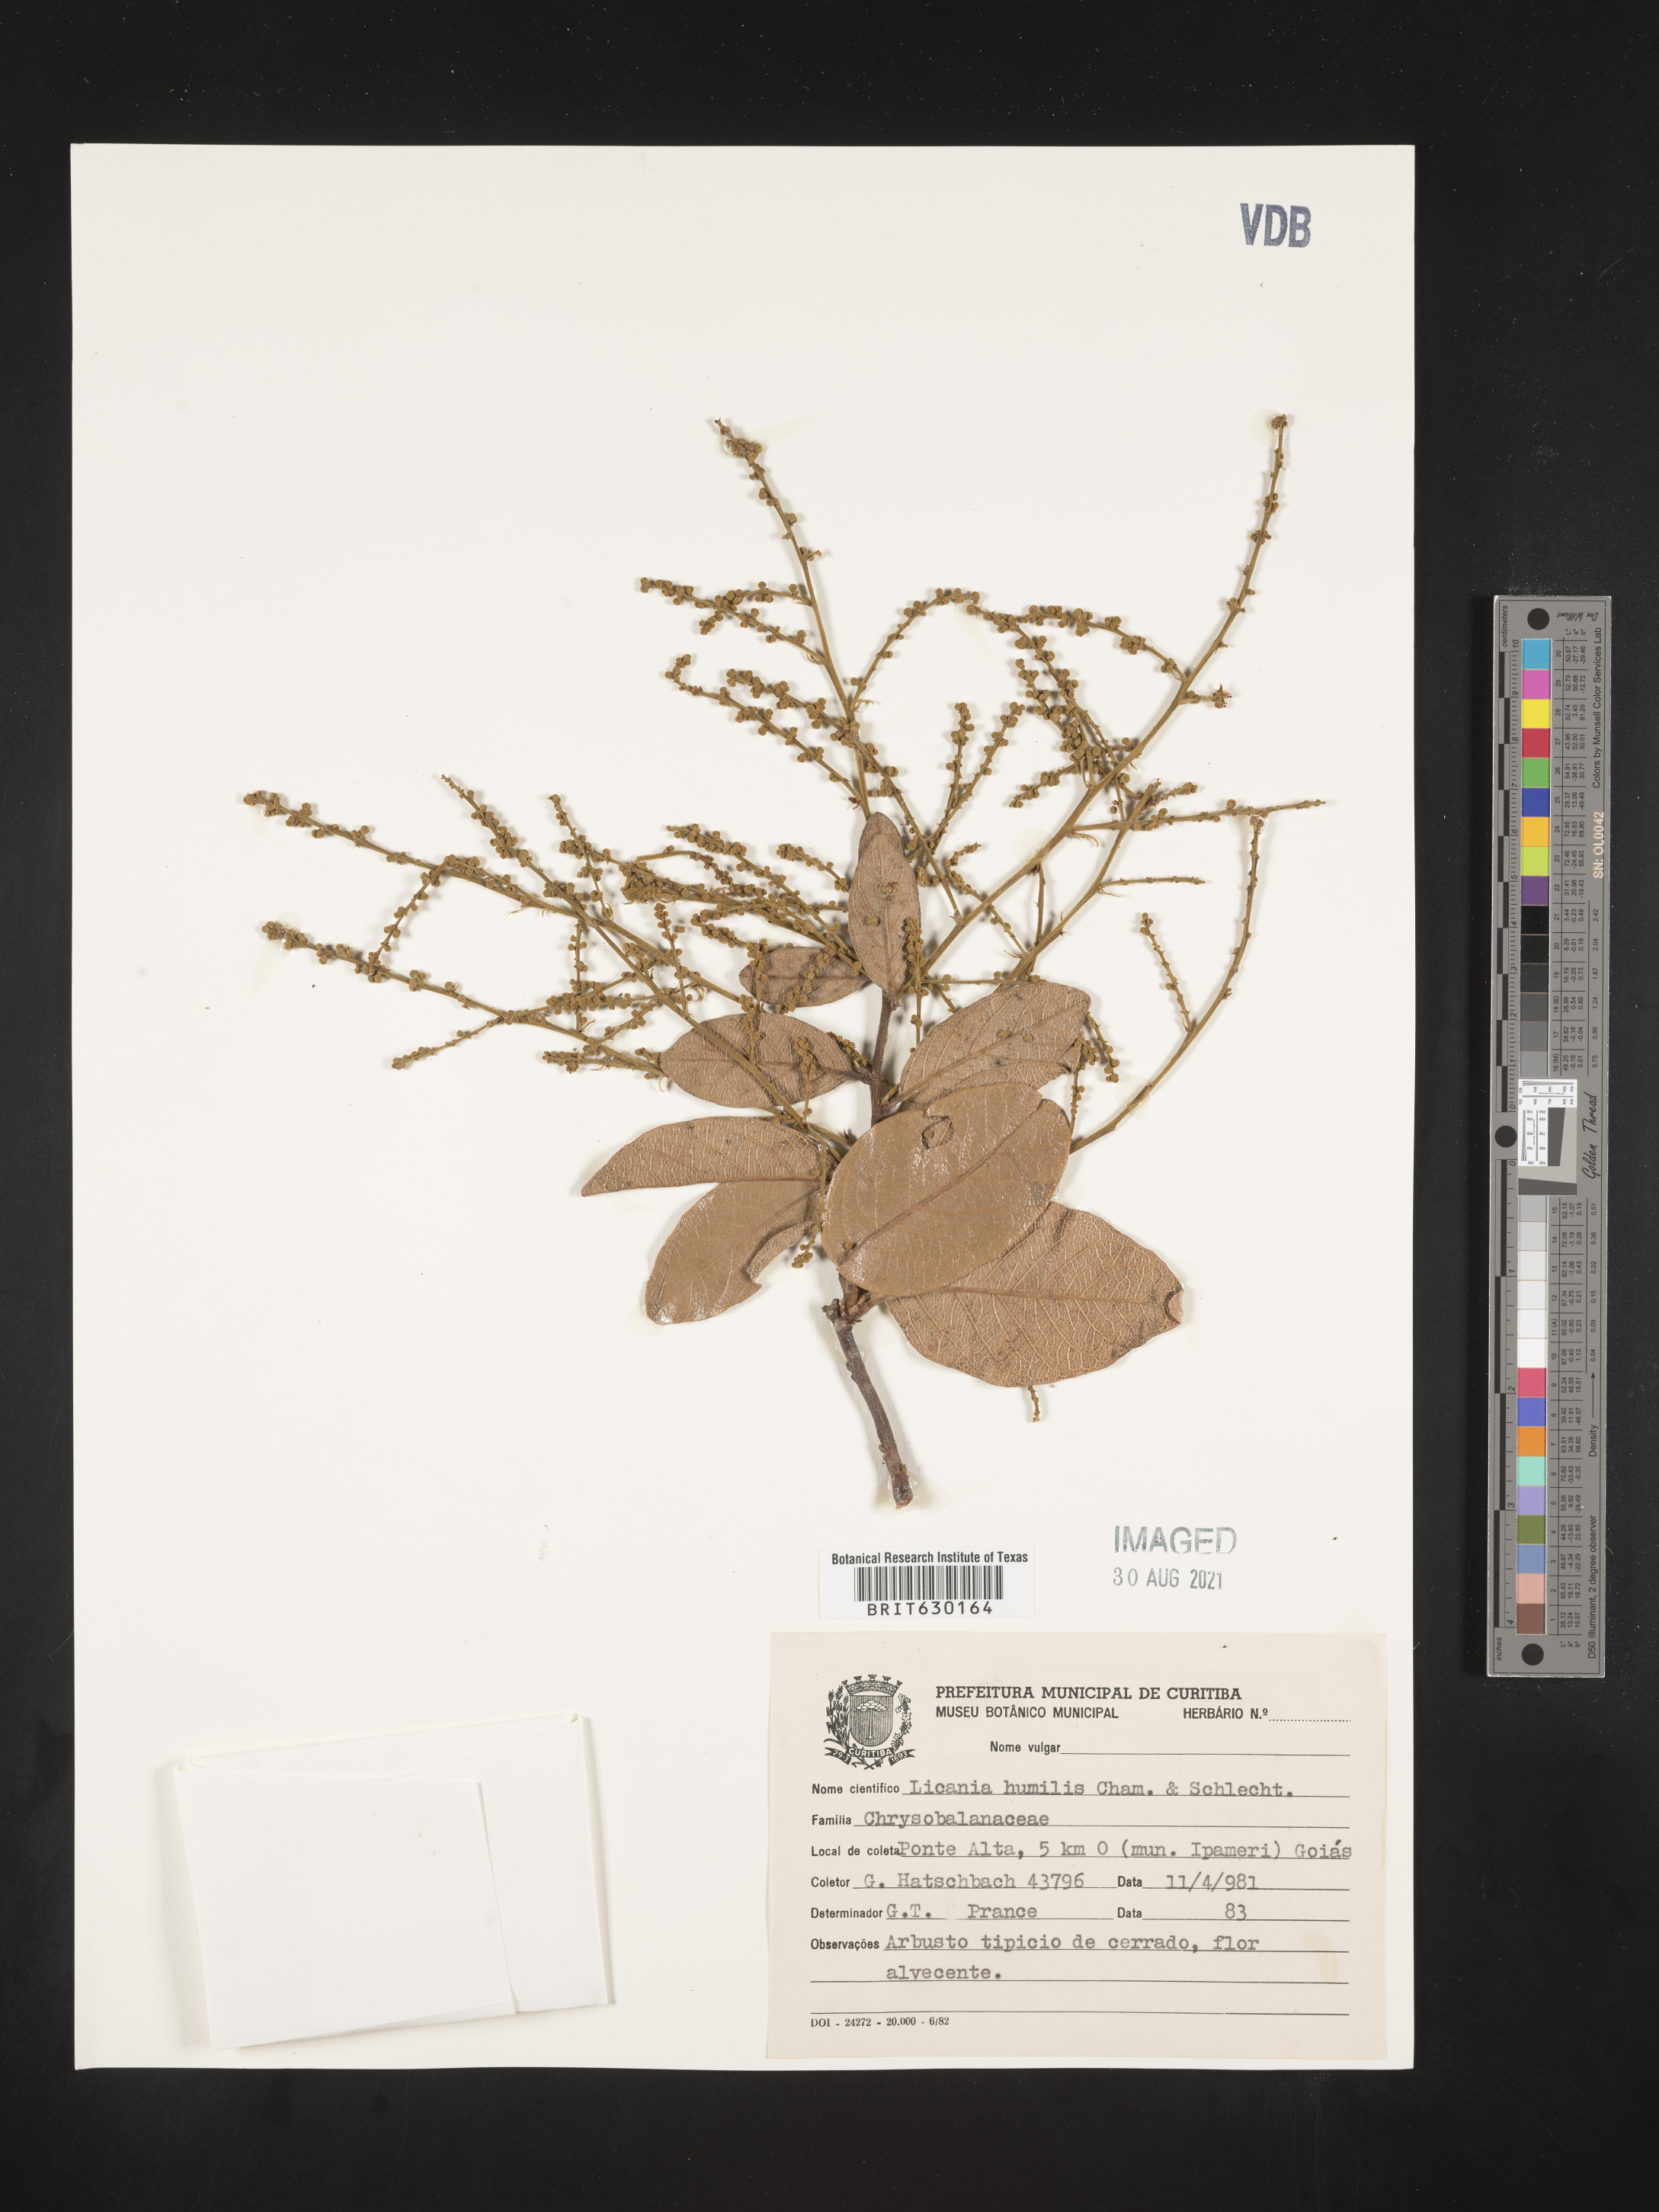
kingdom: Plantae
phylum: Tracheophyta
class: Magnoliopsida
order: Malpighiales
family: Chrysobalanaceae
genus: Leptobalanus
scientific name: Leptobalanus humilis
